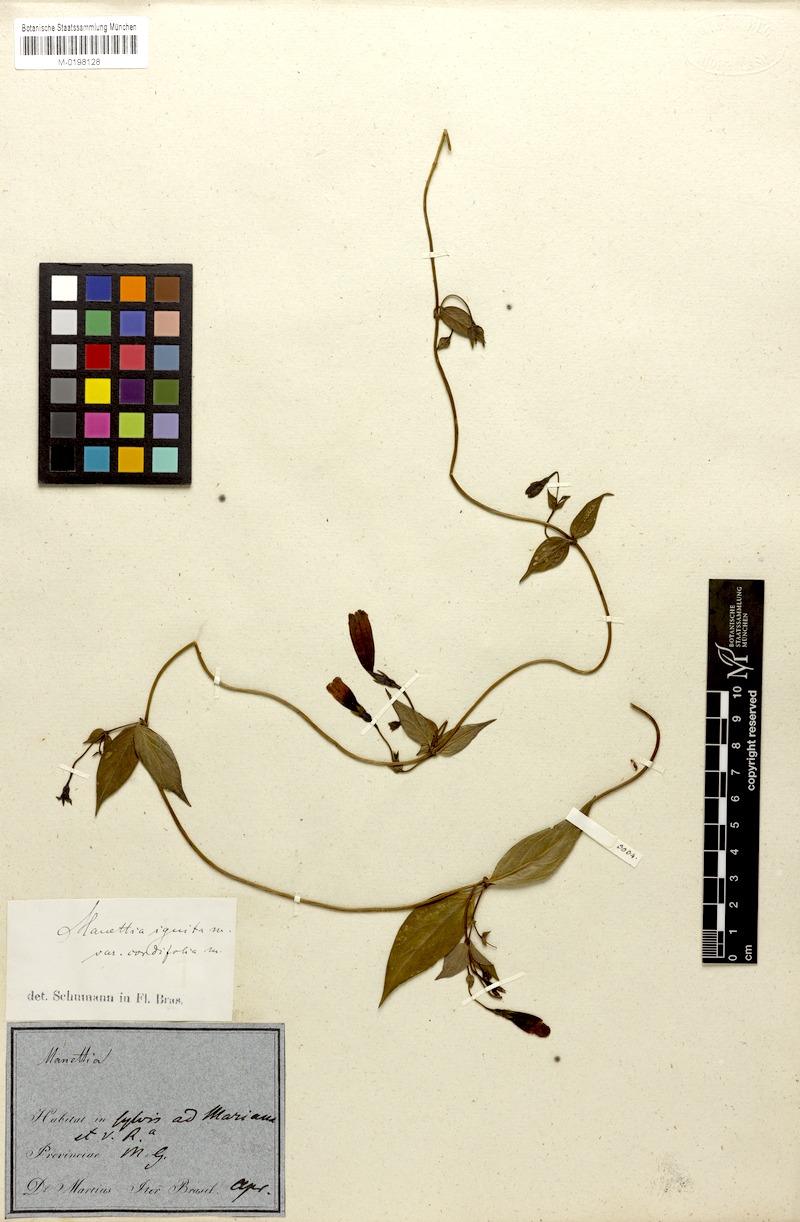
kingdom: Plantae
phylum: Tracheophyta
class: Magnoliopsida
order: Gentianales
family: Rubiaceae
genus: Manettia
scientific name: Manettia cordifolia
